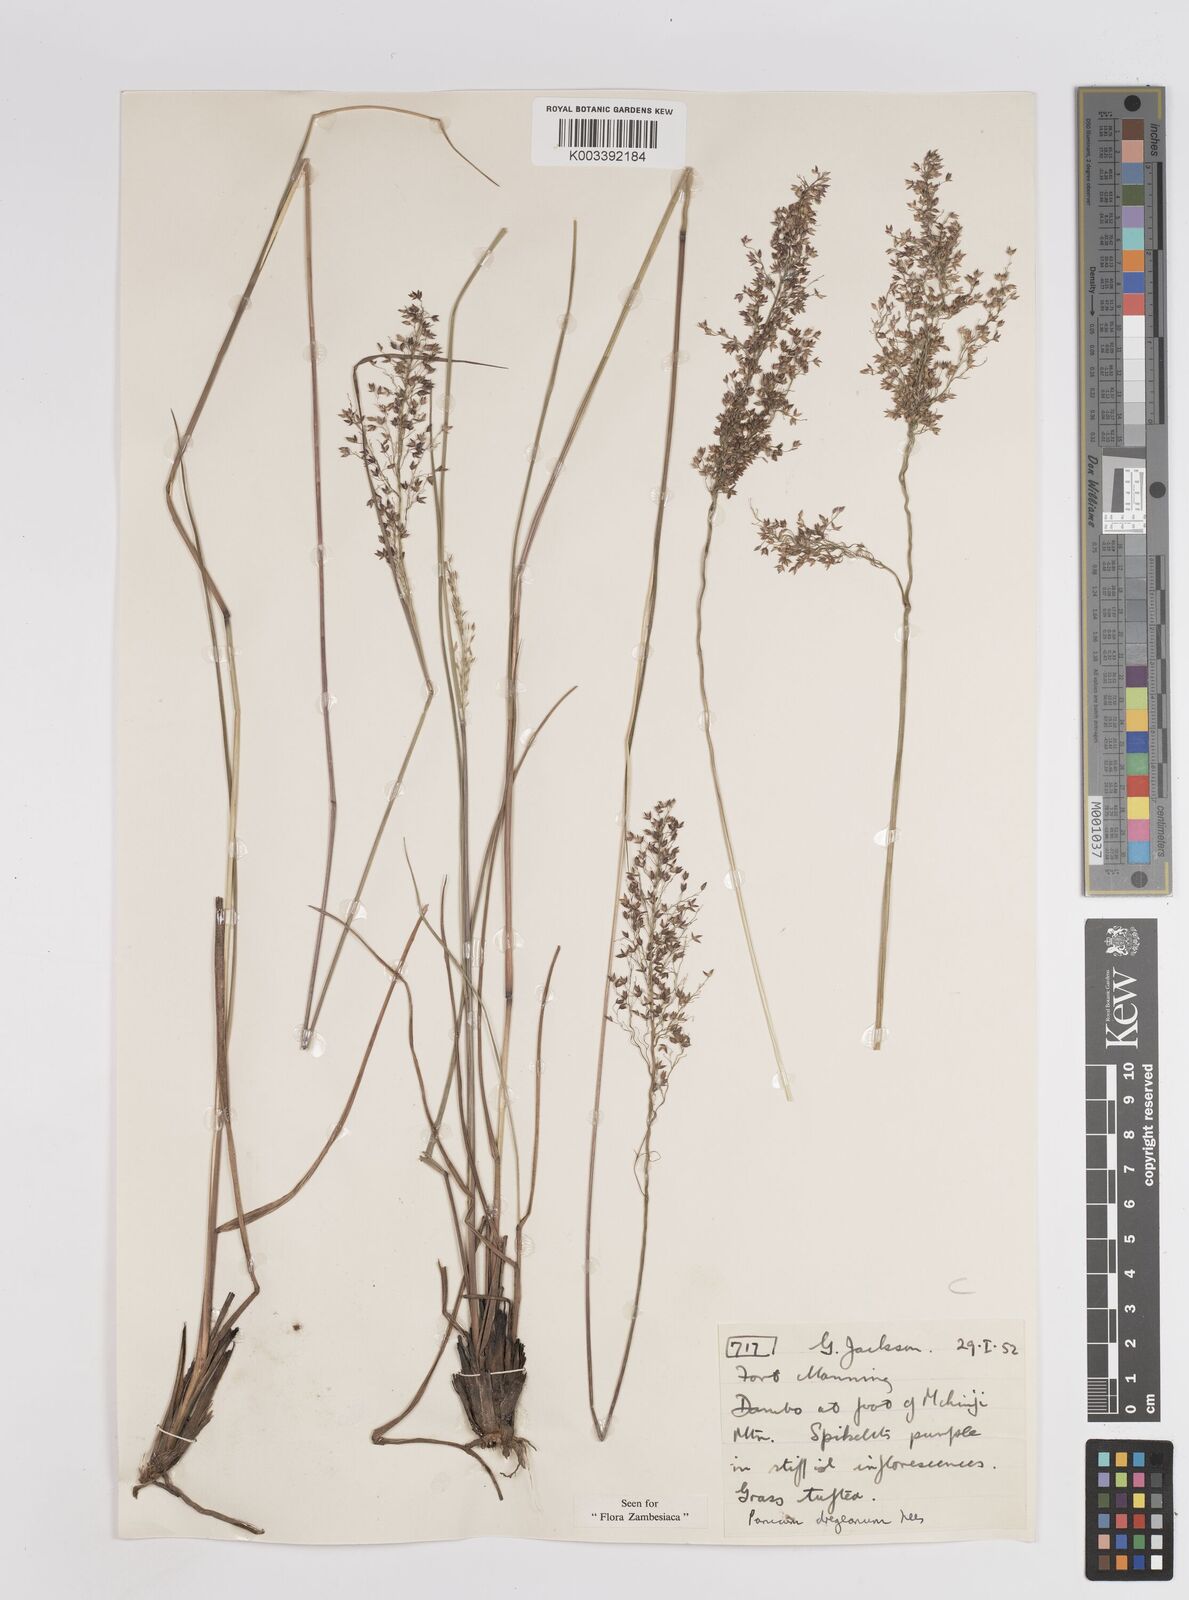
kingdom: Plantae
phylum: Tracheophyta
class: Liliopsida
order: Poales
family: Poaceae
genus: Panicum
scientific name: Panicum dregeanum
